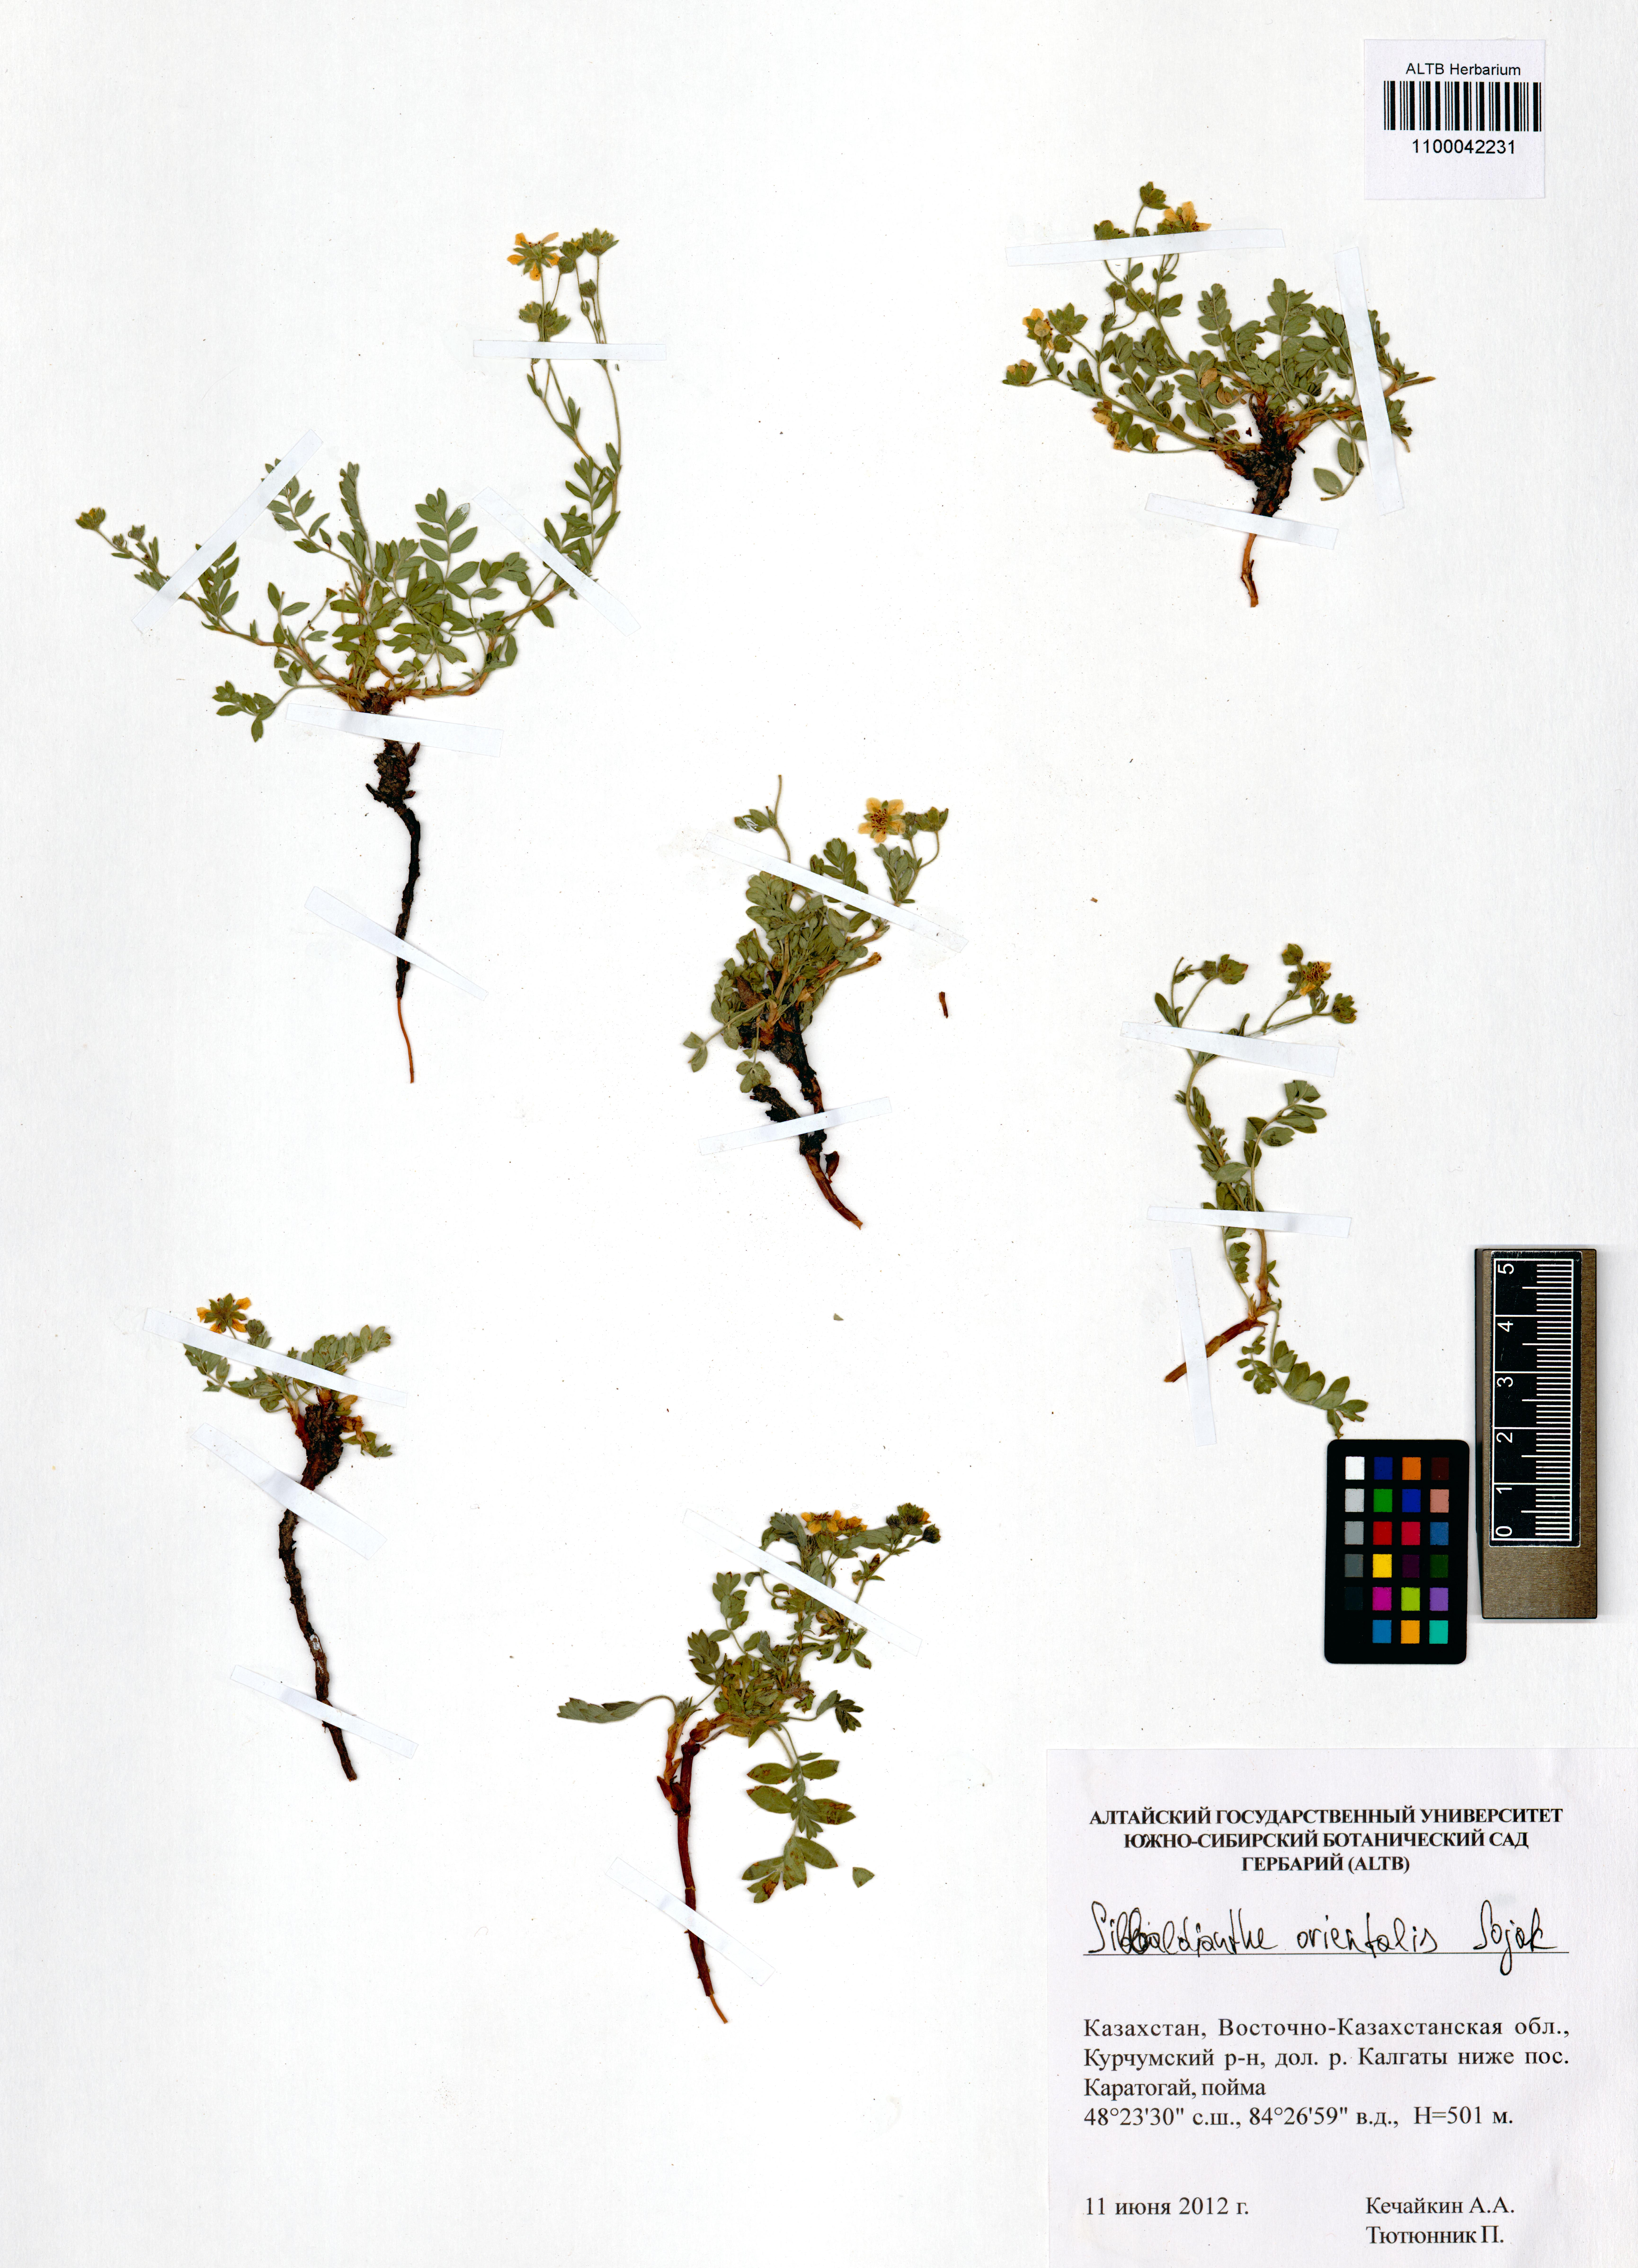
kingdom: Plantae
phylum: Tracheophyta
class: Magnoliopsida
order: Rosales
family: Rosaceae
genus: Sibbaldianthe
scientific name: Sibbaldianthe orientalis
